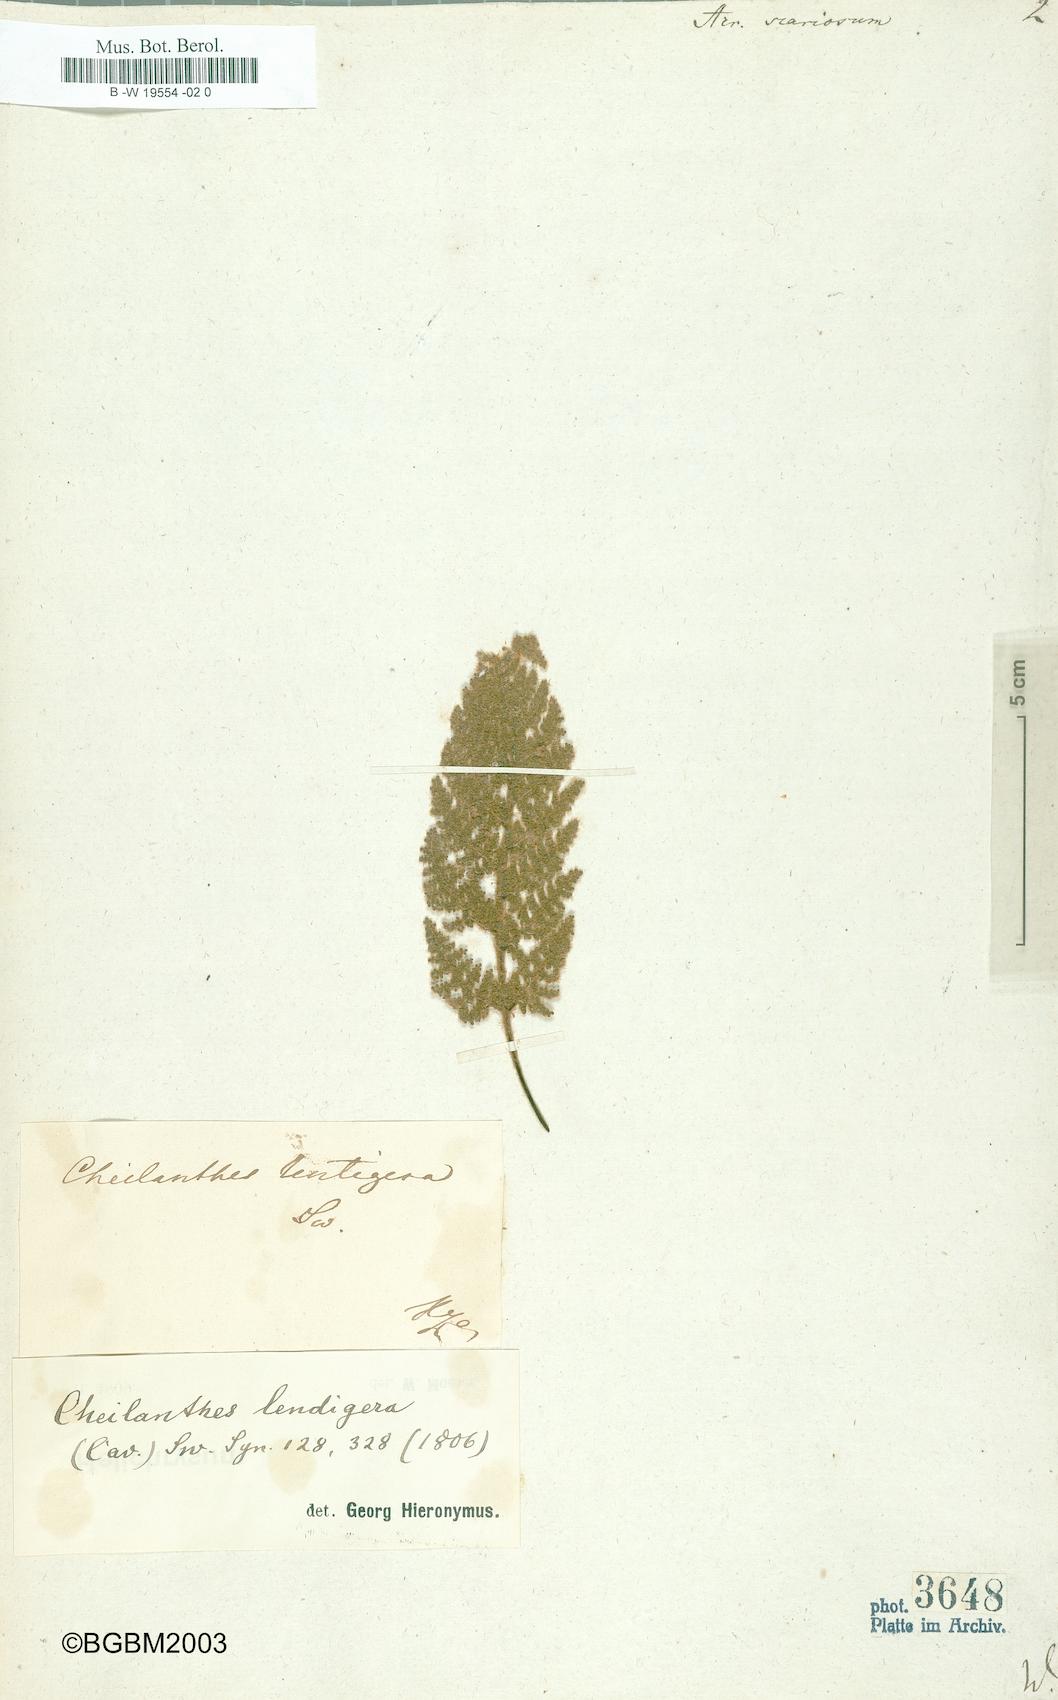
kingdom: Plantae
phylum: Tracheophyta
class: Polypodiopsida
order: Polypodiales
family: Pteridaceae
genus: Cheilanthes
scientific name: Cheilanthes scariosa
